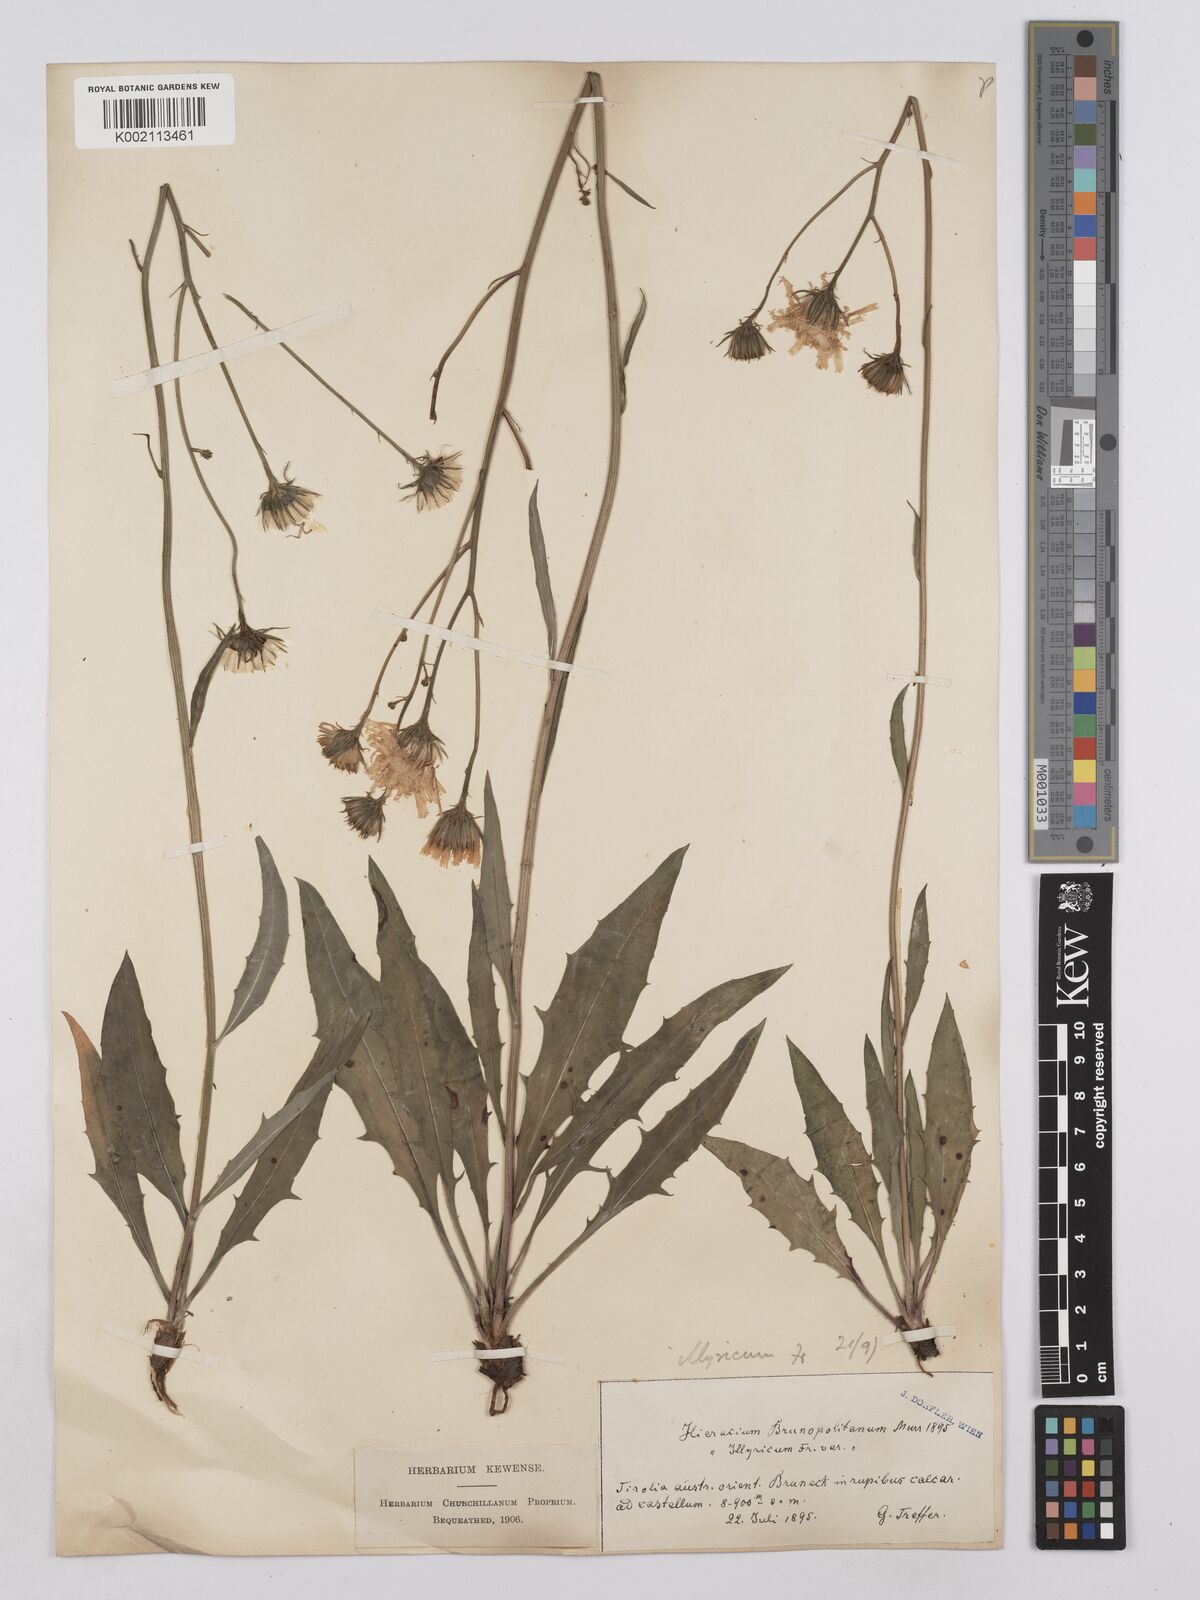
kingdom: Plantae
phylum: Tracheophyta
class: Magnoliopsida
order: Asterales
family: Asteraceae
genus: Hieracium
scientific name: Hieracium calcareum
